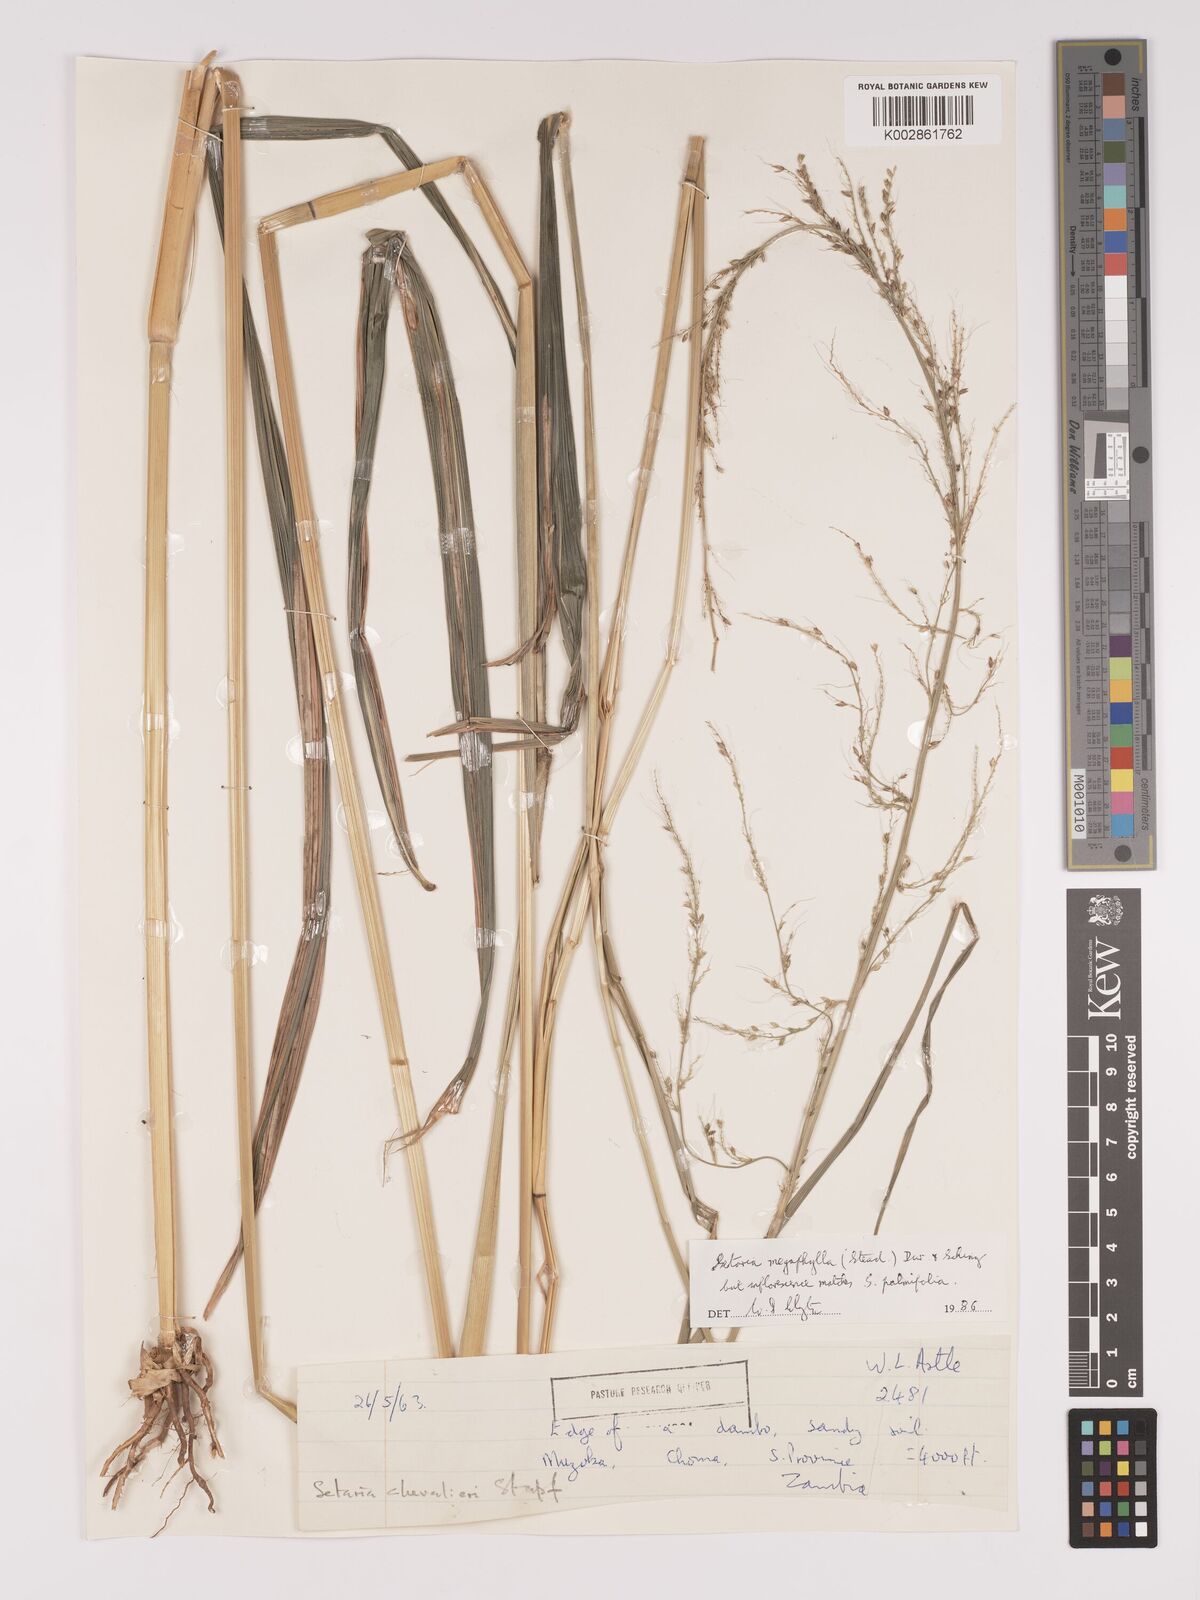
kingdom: Plantae
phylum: Tracheophyta
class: Liliopsida
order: Poales
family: Poaceae
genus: Setaria
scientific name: Setaria megaphylla
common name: Bigleaf bristlegrass
